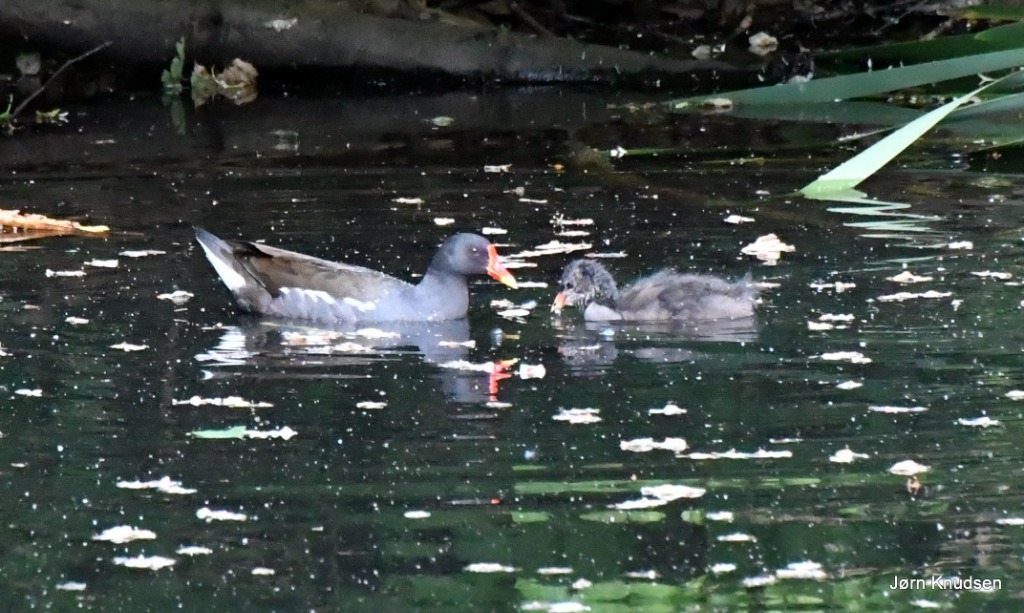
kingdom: Animalia
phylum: Chordata
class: Aves
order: Gruiformes
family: Rallidae
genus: Gallinula
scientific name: Gallinula chloropus
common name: Grønbenet rørhøne
